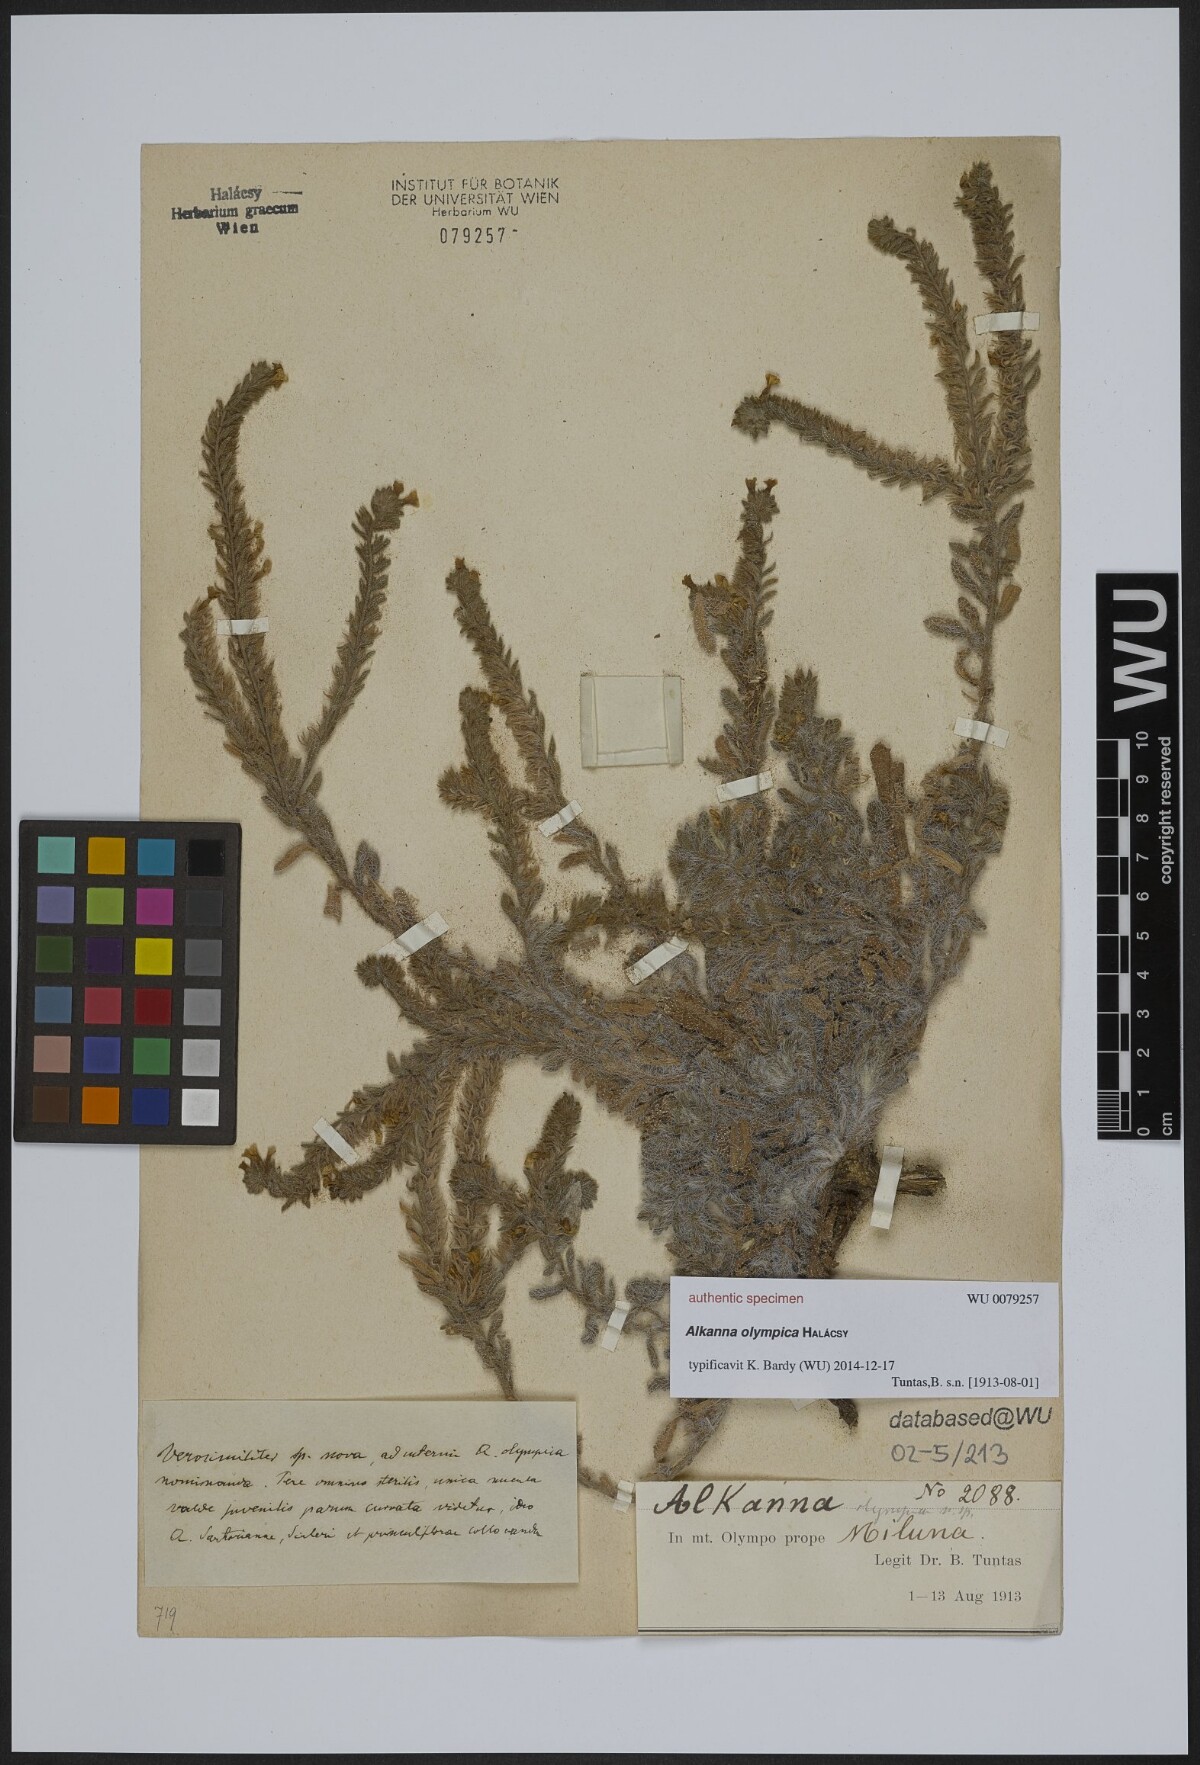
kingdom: Plantae
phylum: Tracheophyta
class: Magnoliopsida
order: Boraginales
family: Boraginaceae
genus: Alkanna
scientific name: Alkanna
